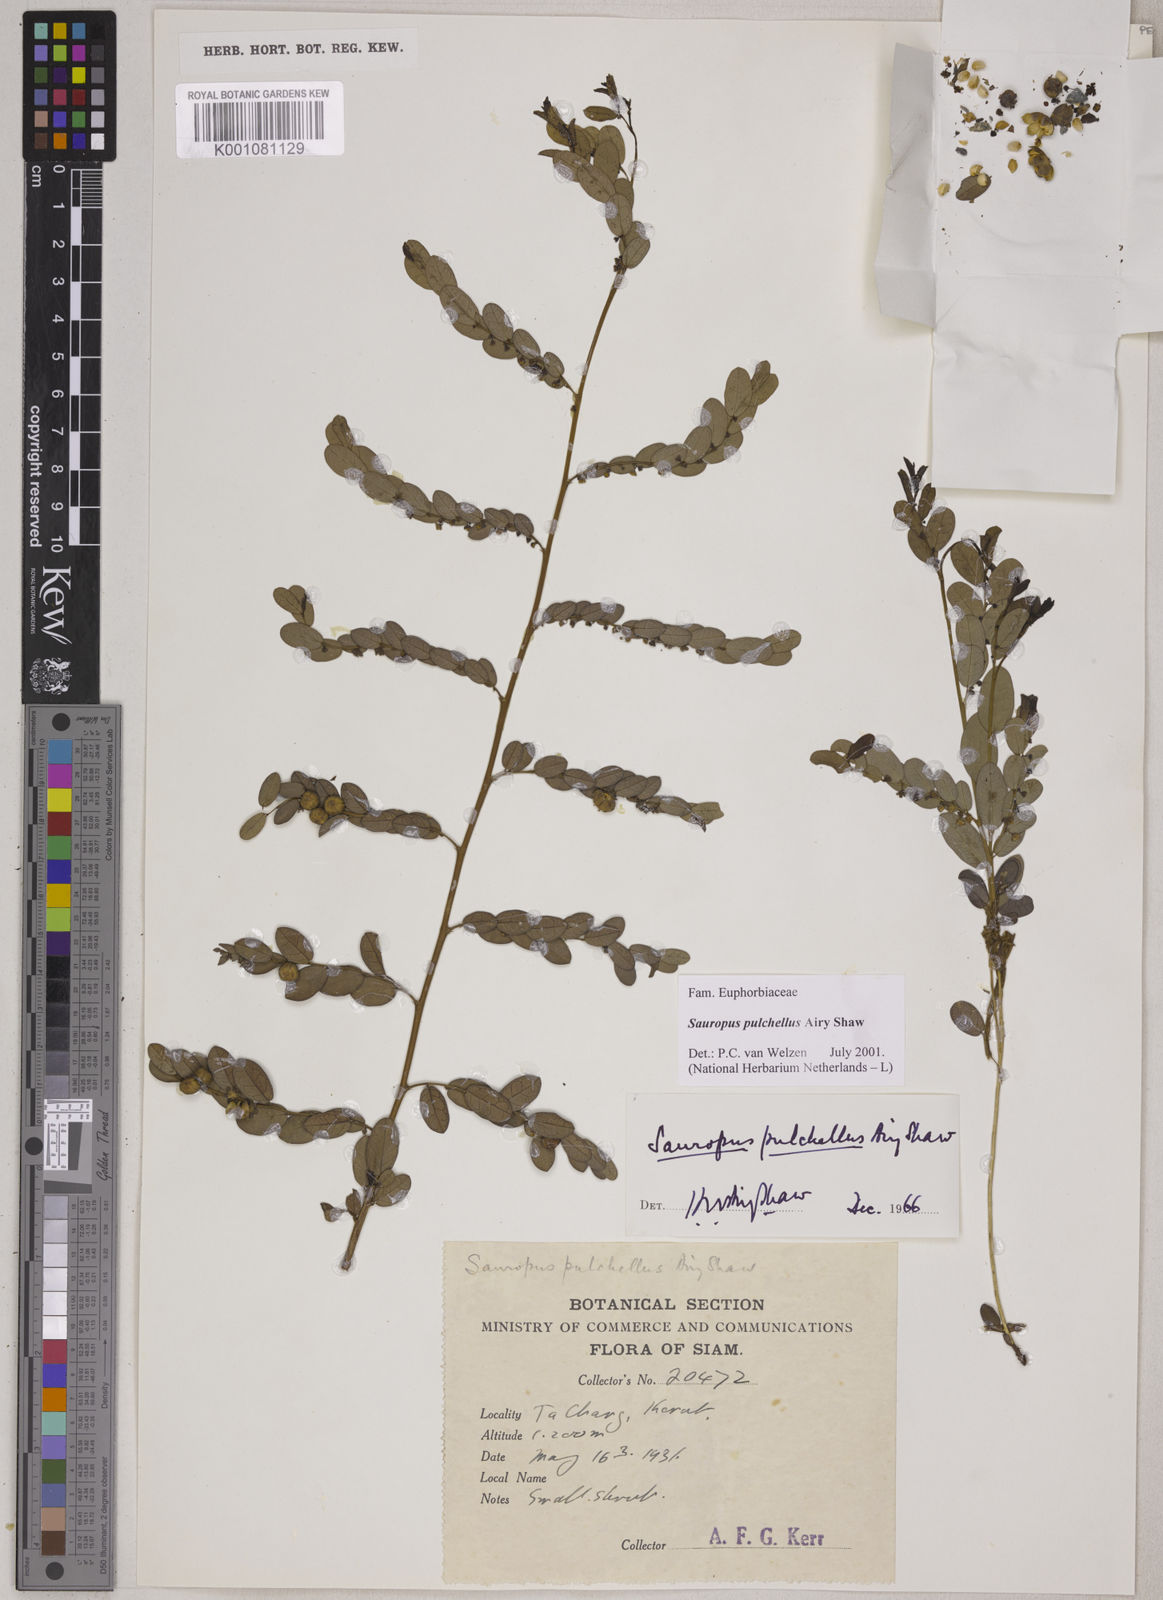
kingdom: Plantae
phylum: Tracheophyta
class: Magnoliopsida
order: Malpighiales
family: Phyllanthaceae
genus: Breynia
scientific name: Breynia pulchella
